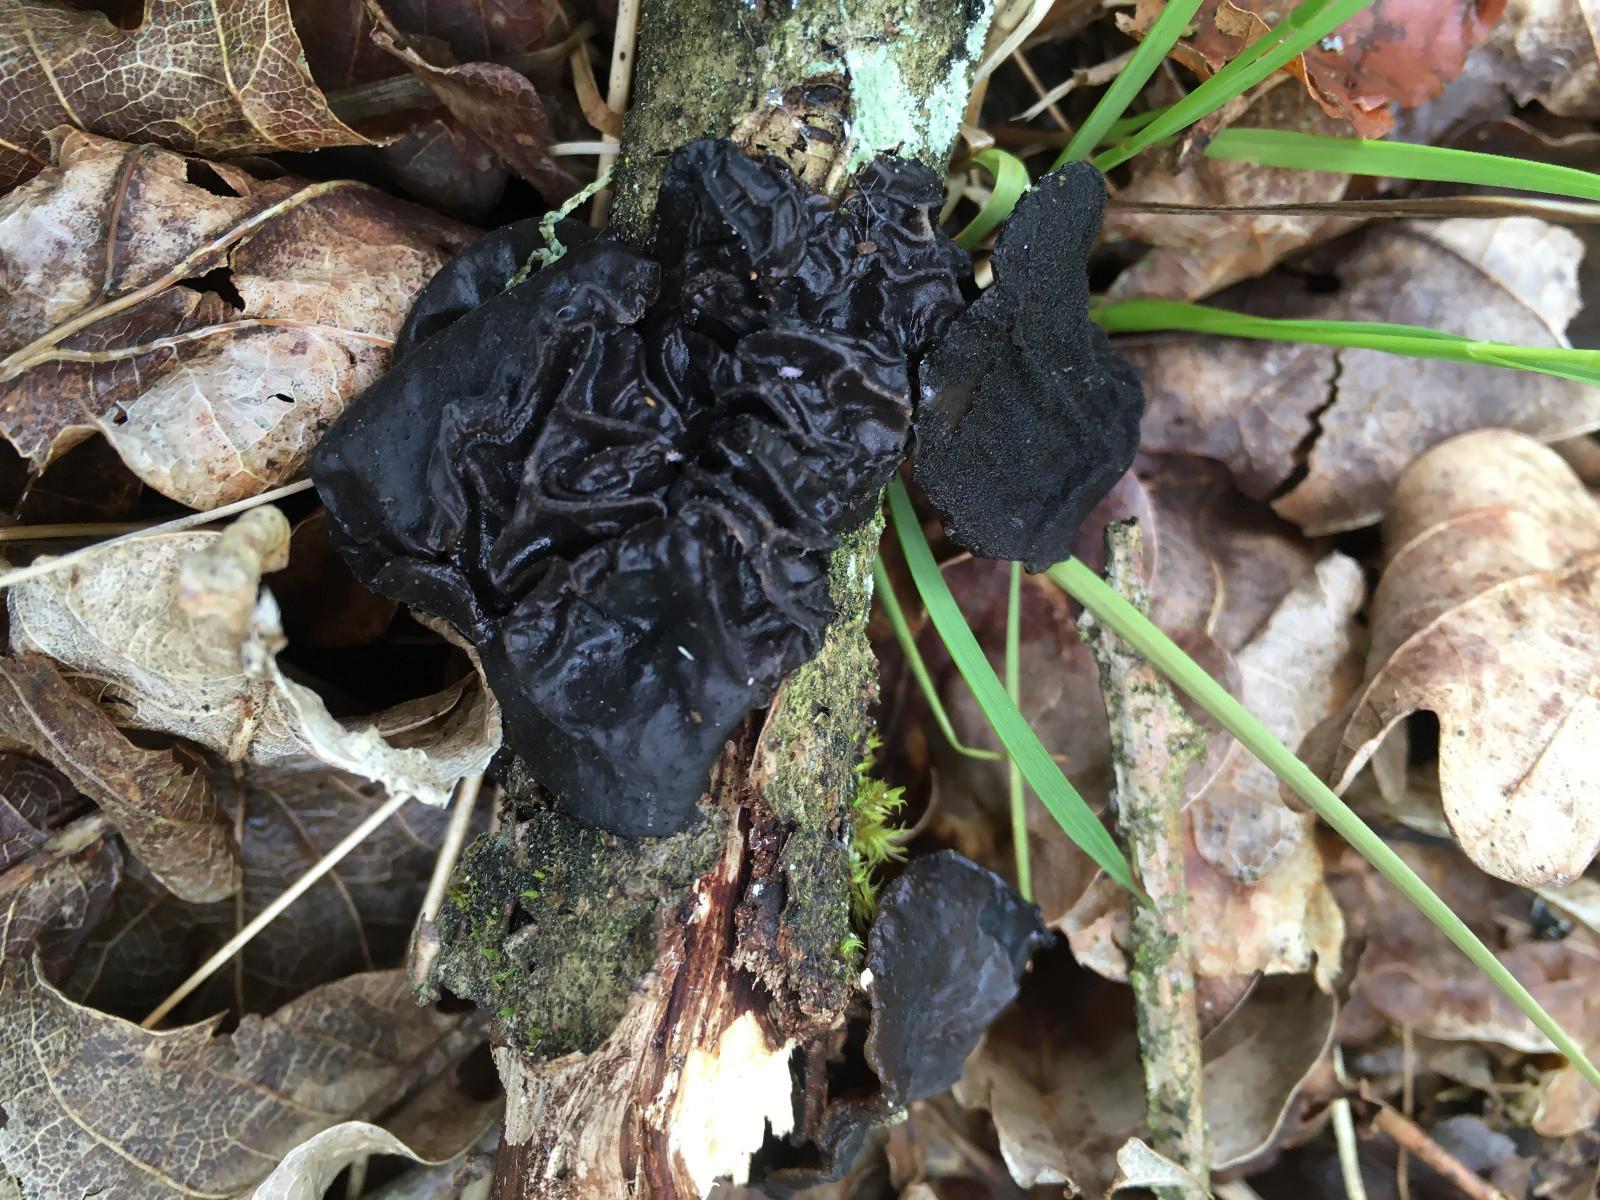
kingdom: Fungi
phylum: Basidiomycota
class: Agaricomycetes
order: Auriculariales
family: Auriculariaceae
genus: Exidia
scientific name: Exidia glandulosa
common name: ege-bævretop
